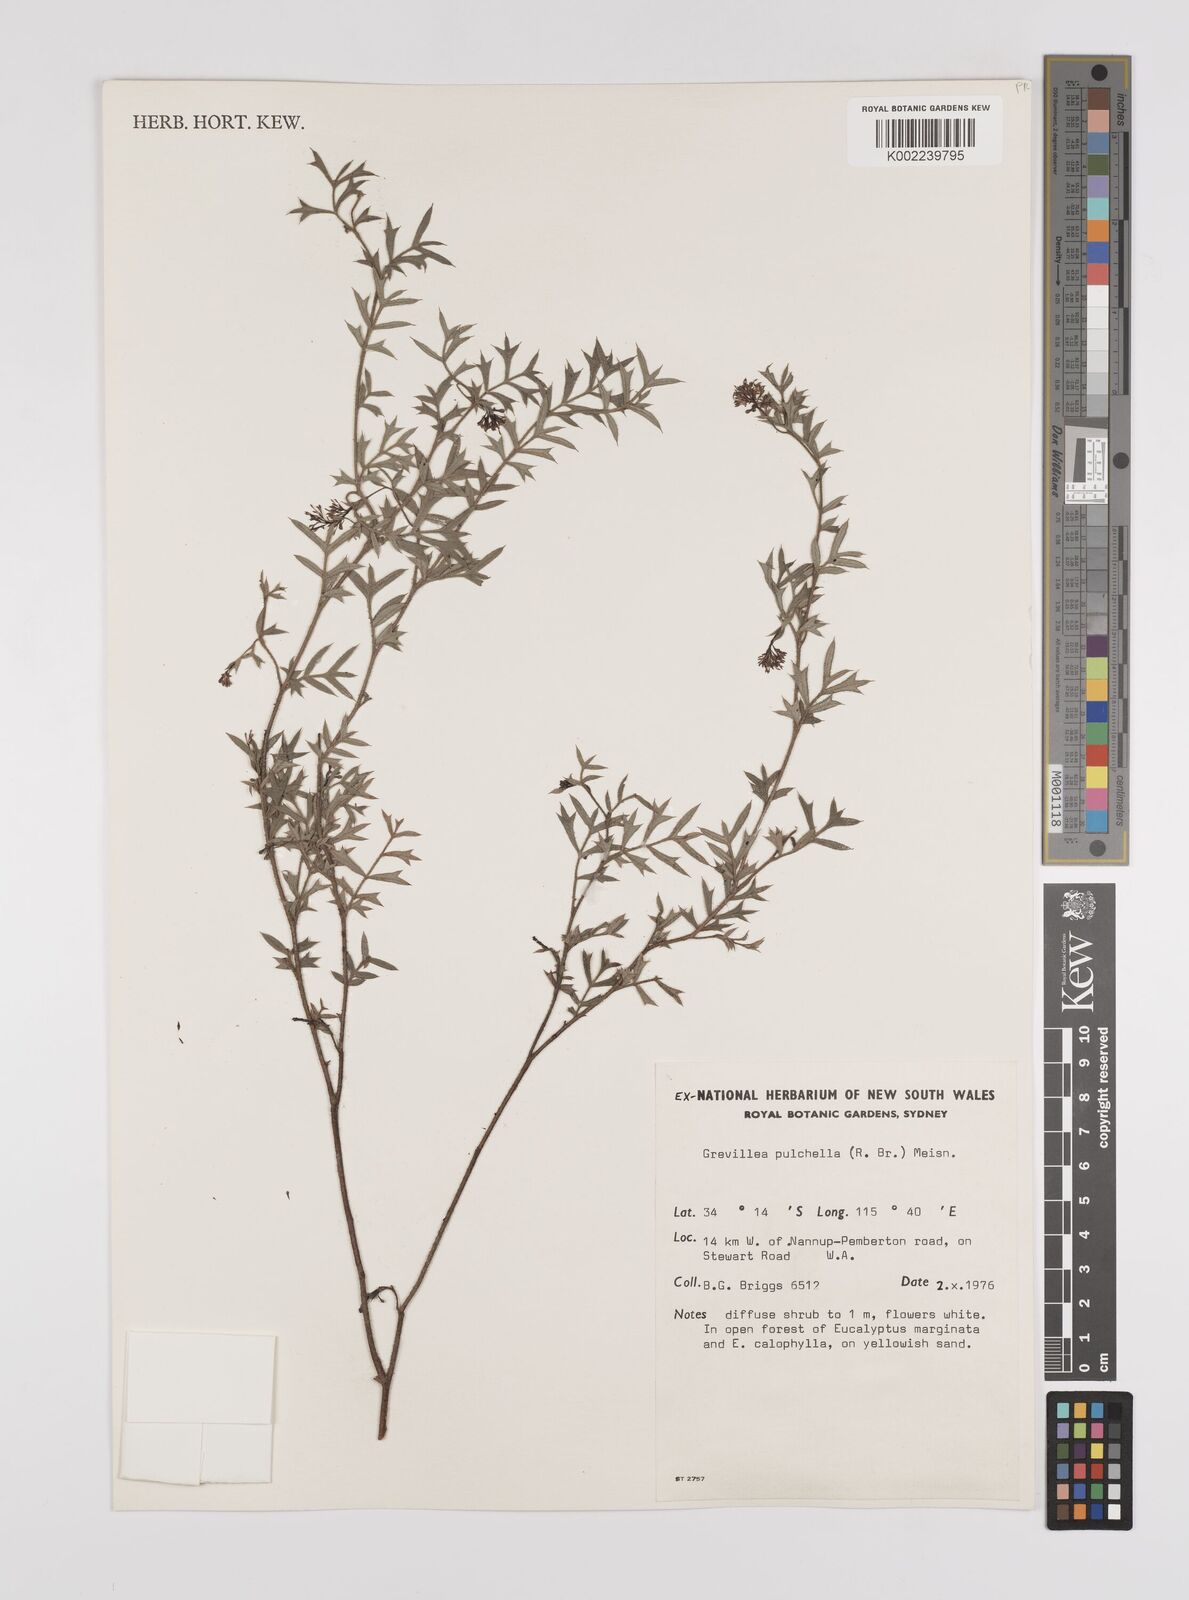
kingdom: Plantae
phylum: Tracheophyta
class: Magnoliopsida
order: Proteales
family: Proteaceae
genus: Grevillea
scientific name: Grevillea pulchella
